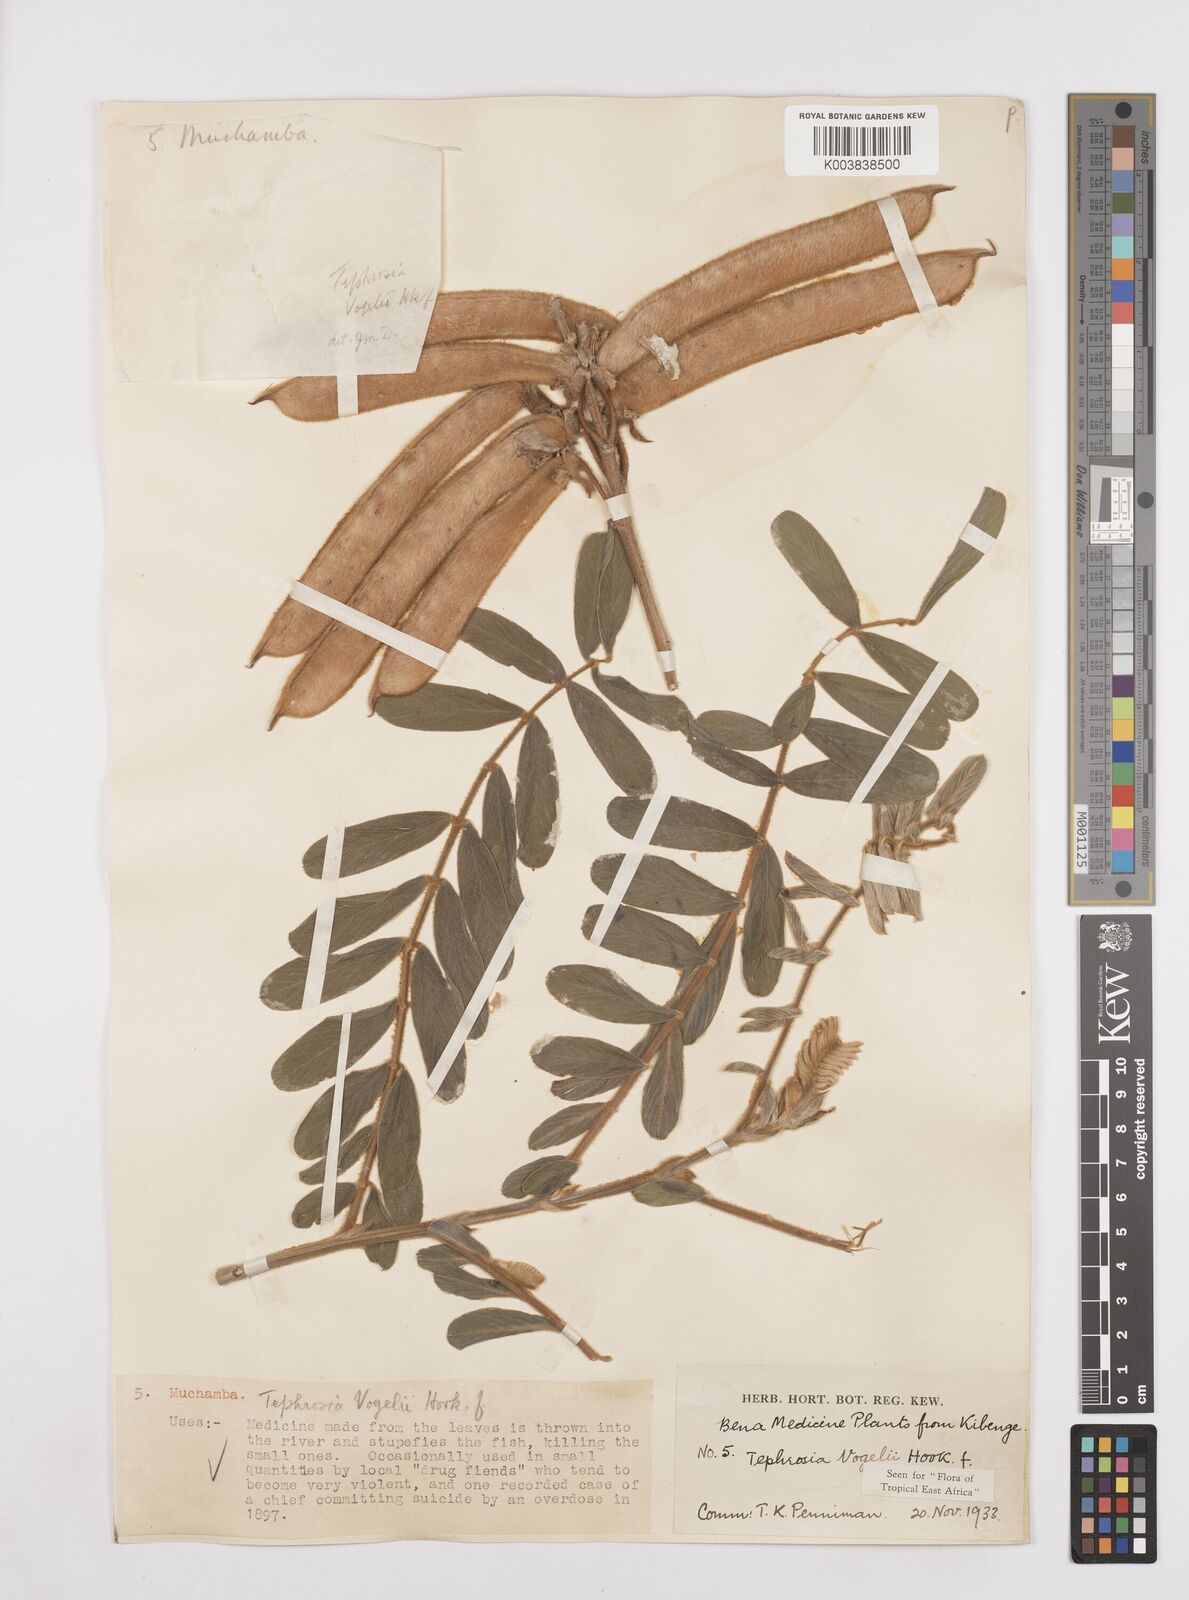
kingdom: Plantae
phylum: Tracheophyta
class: Magnoliopsida
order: Fabales
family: Fabaceae
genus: Tephrosia
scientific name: Tephrosia vogelii
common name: Vogel tephrosia
